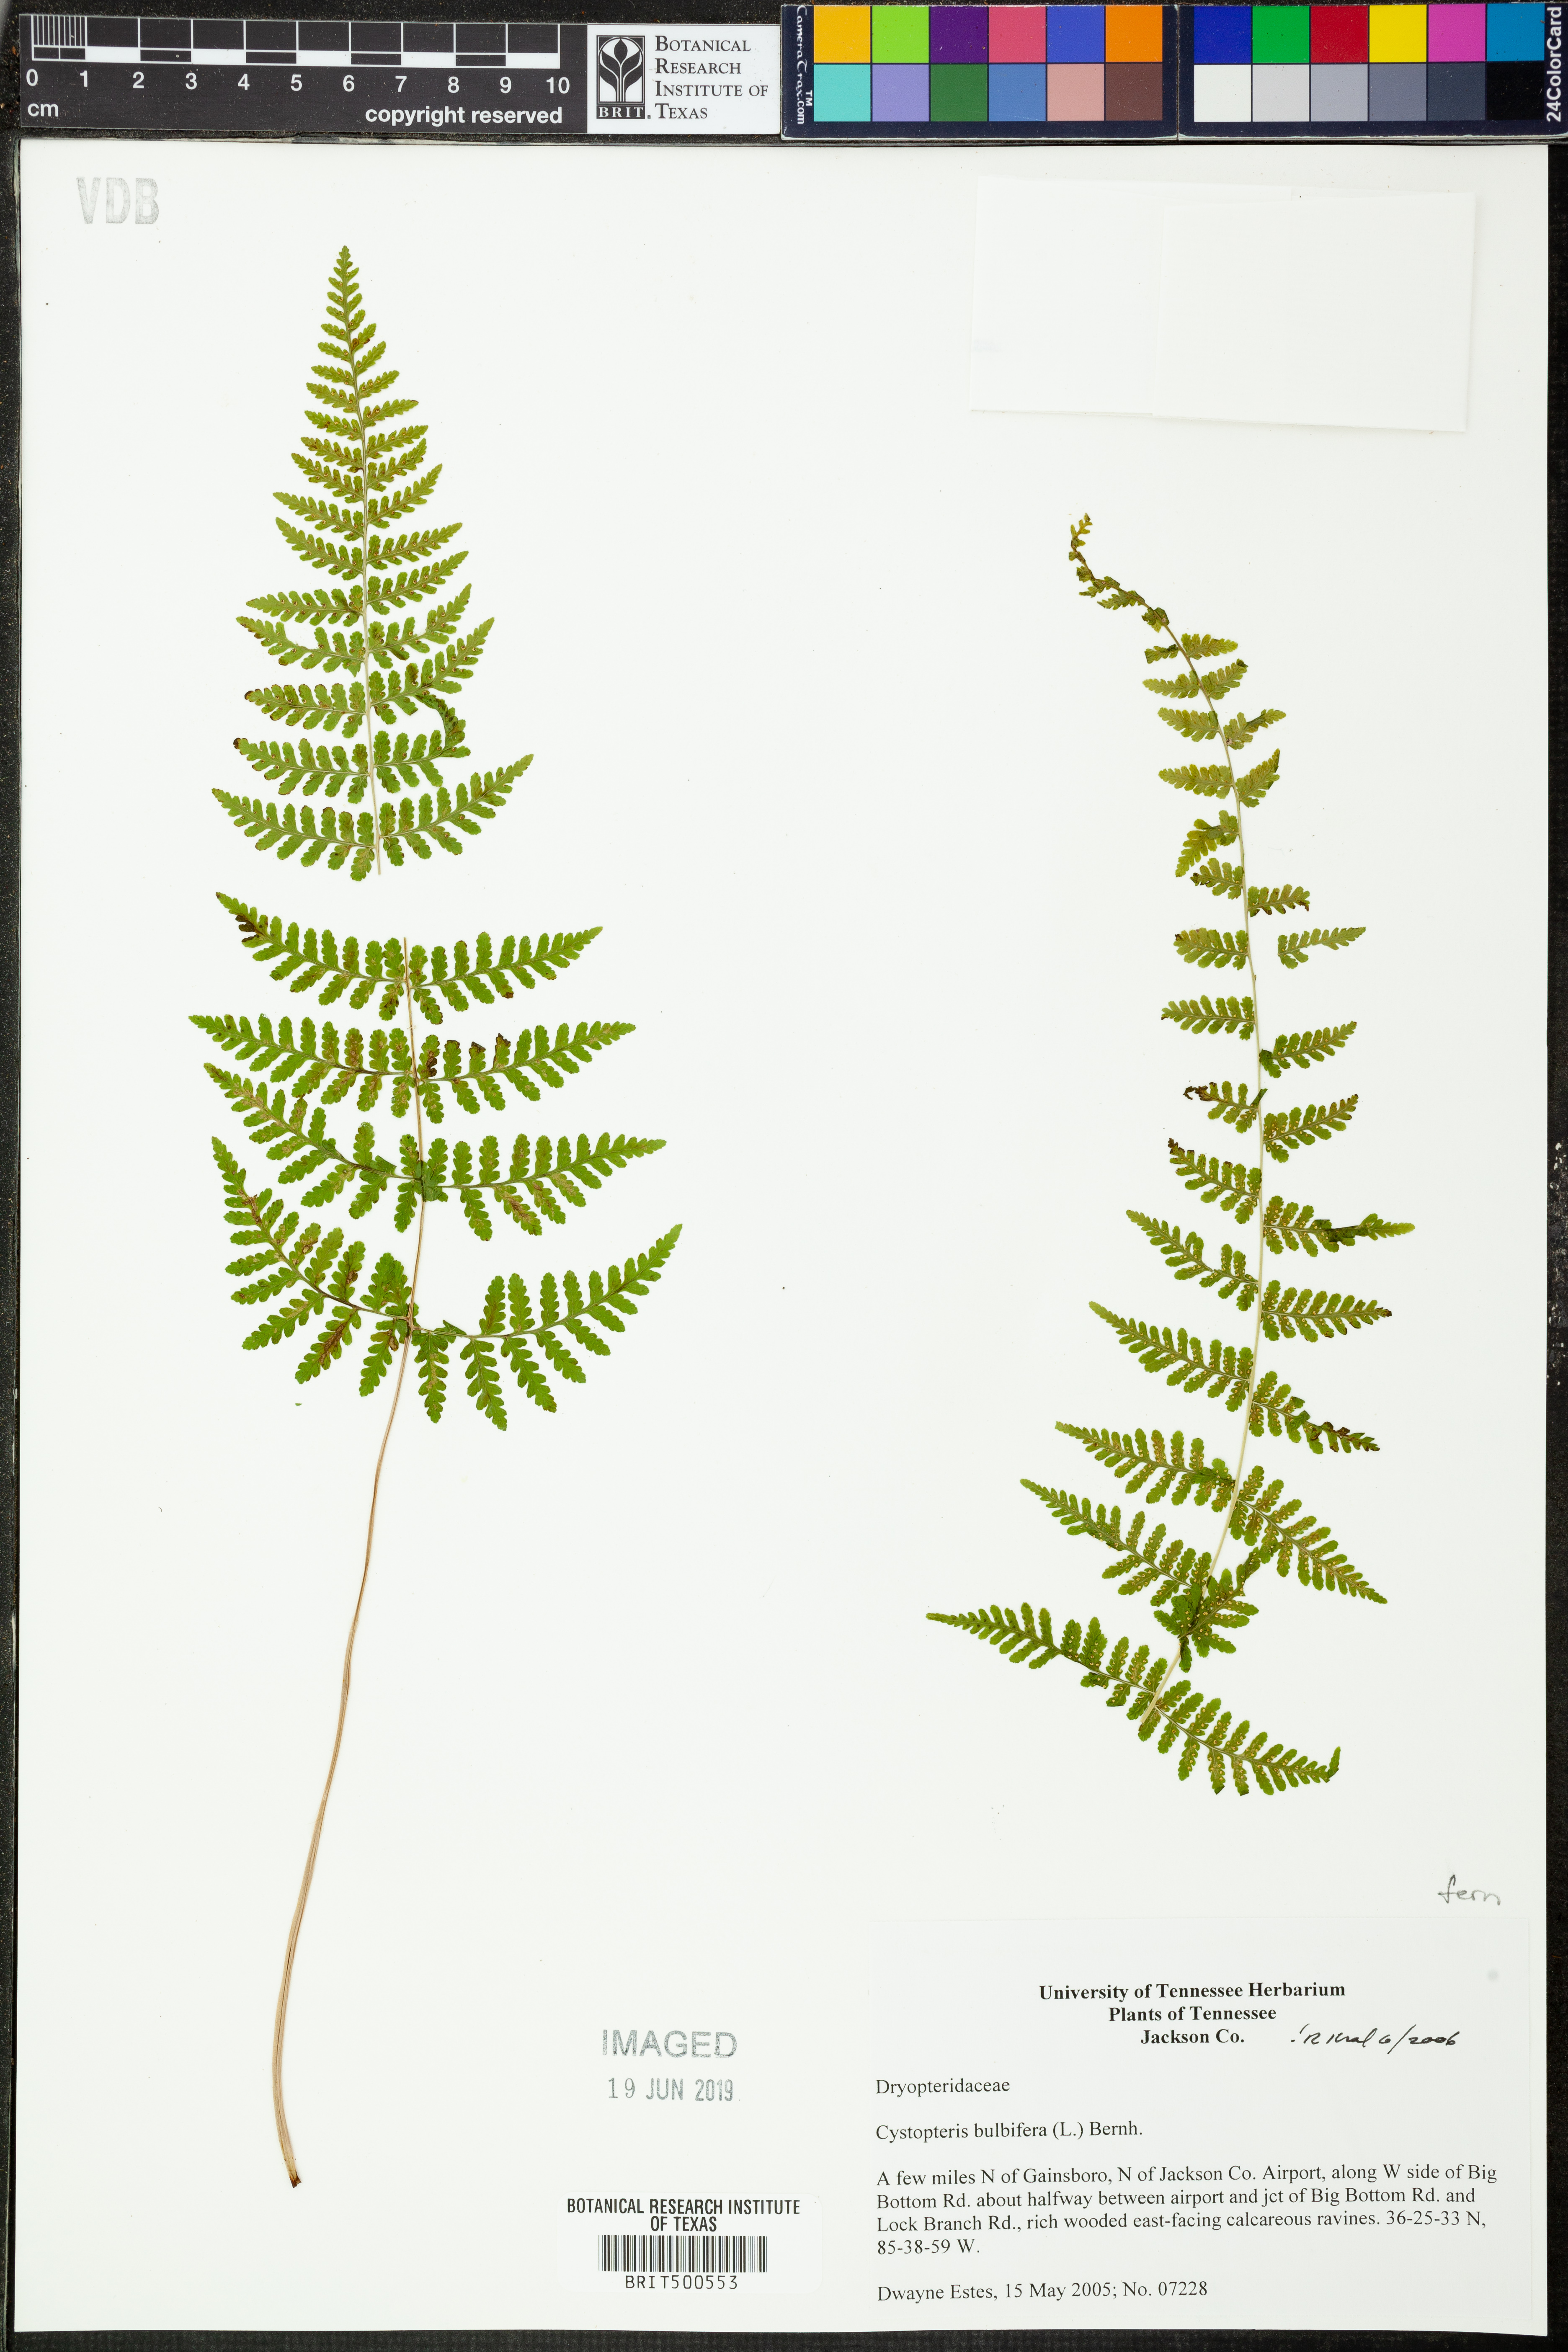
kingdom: Plantae
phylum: Tracheophyta
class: Polypodiopsida
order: Polypodiales
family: Cystopteridaceae
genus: Cystopteris
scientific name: Cystopteris bulbifera
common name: Bulblet bladder fern
